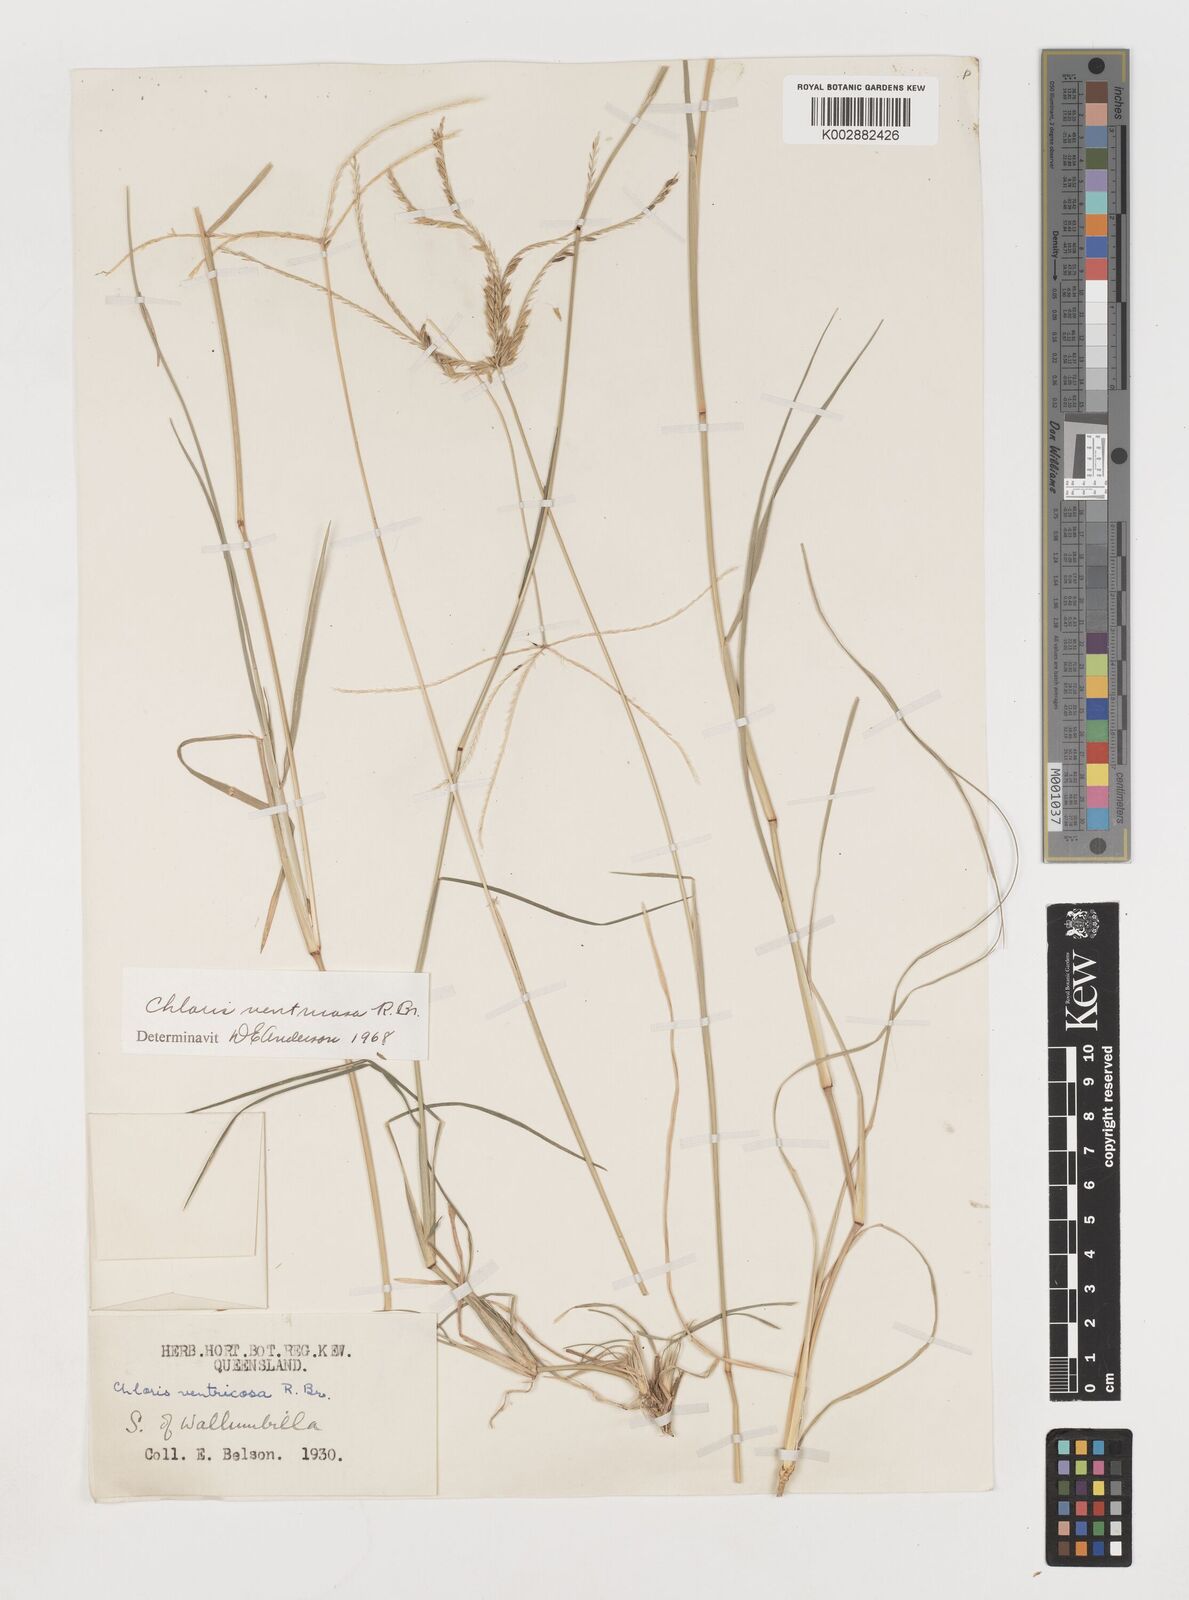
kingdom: Plantae
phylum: Tracheophyta
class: Liliopsida
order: Poales
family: Poaceae
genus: Chloris
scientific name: Chloris ventricosa
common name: Australian windmill grass
